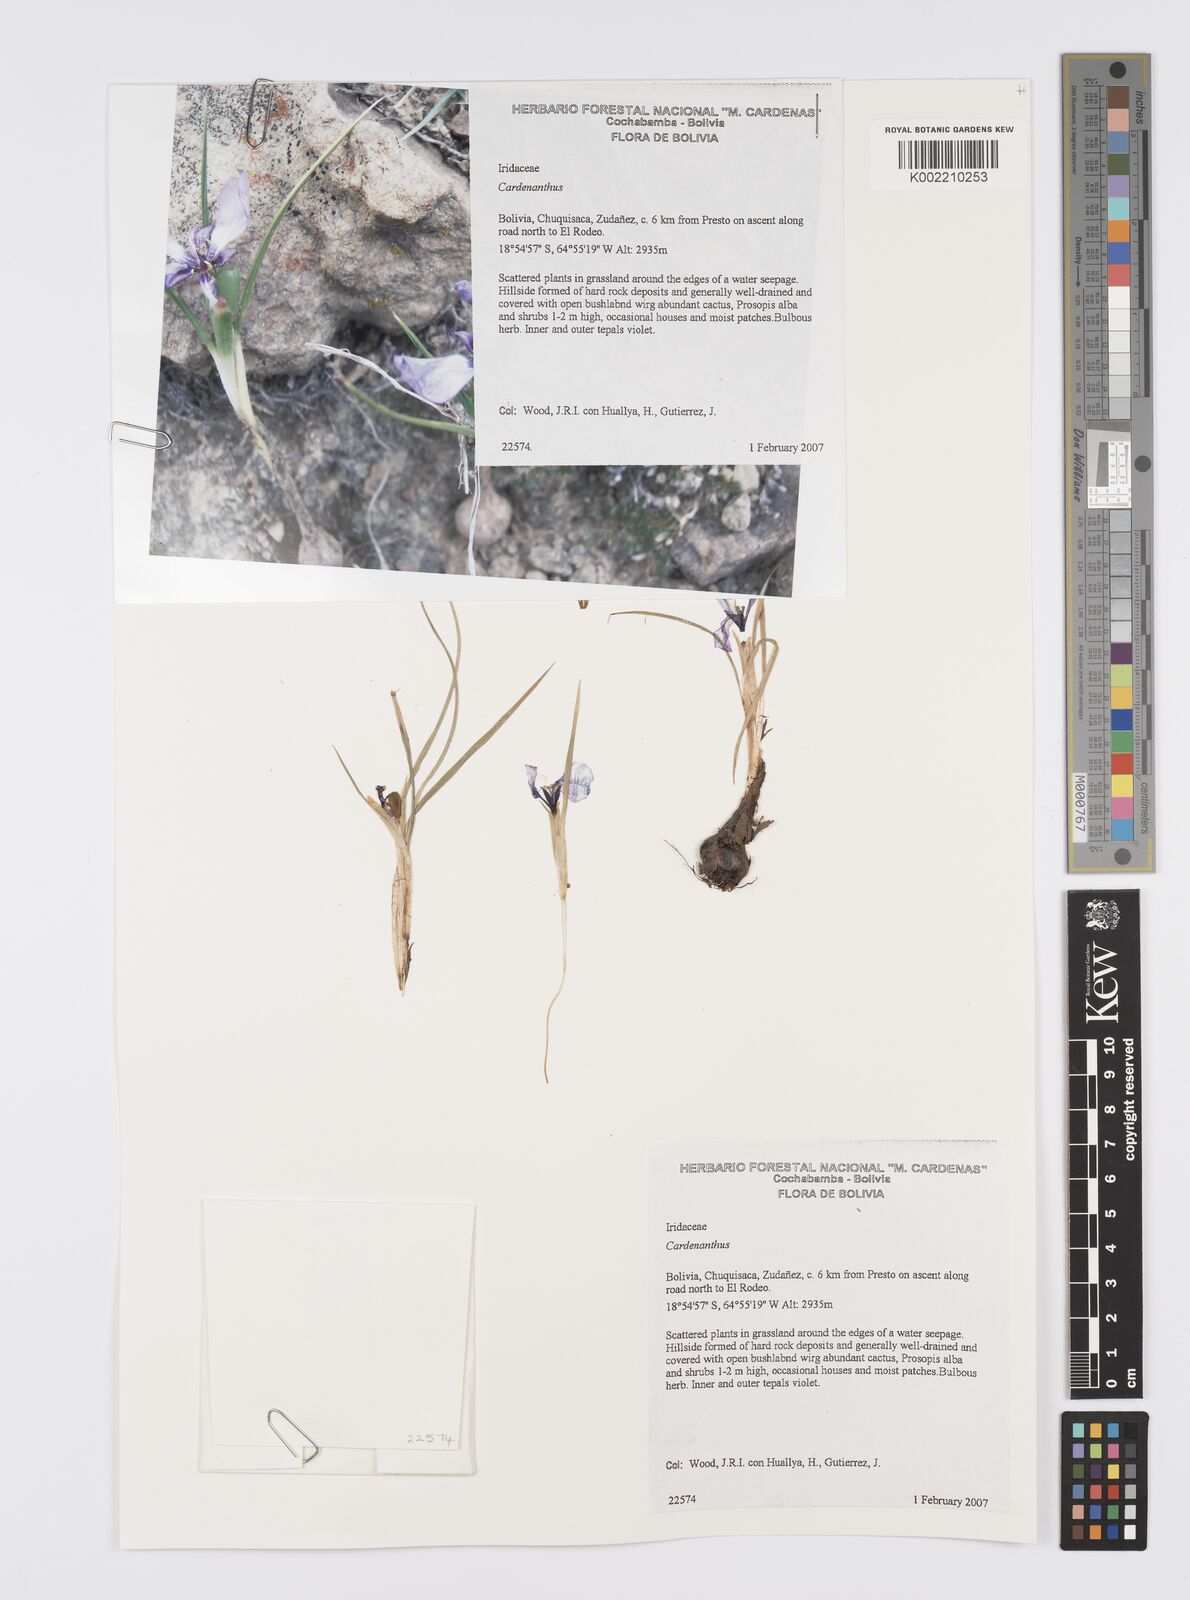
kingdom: Plantae
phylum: Tracheophyta
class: Liliopsida
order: Asparagales
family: Iridaceae
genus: Mastigostyla
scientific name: Mastigostyla
